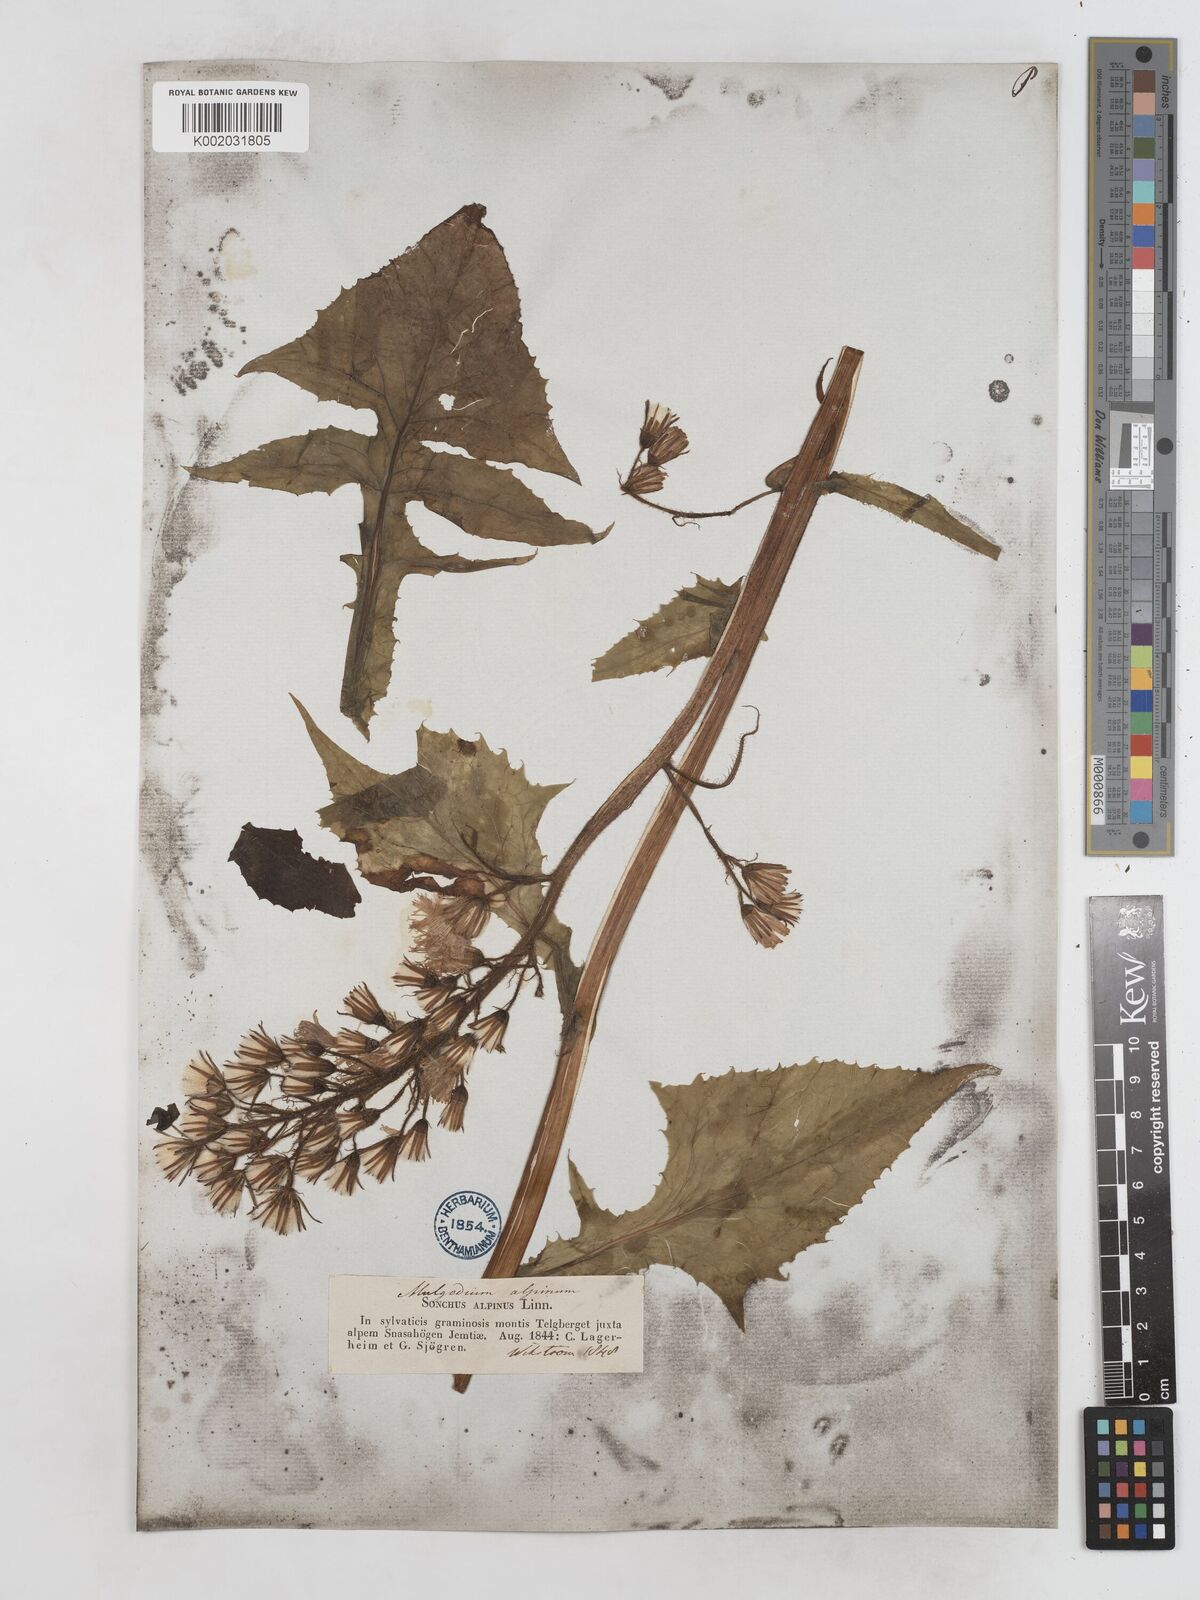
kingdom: Plantae
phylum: Tracheophyta
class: Magnoliopsida
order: Asterales
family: Asteraceae
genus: Cicerbita
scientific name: Cicerbita alpina
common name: Alpine blue-sow-thistle
